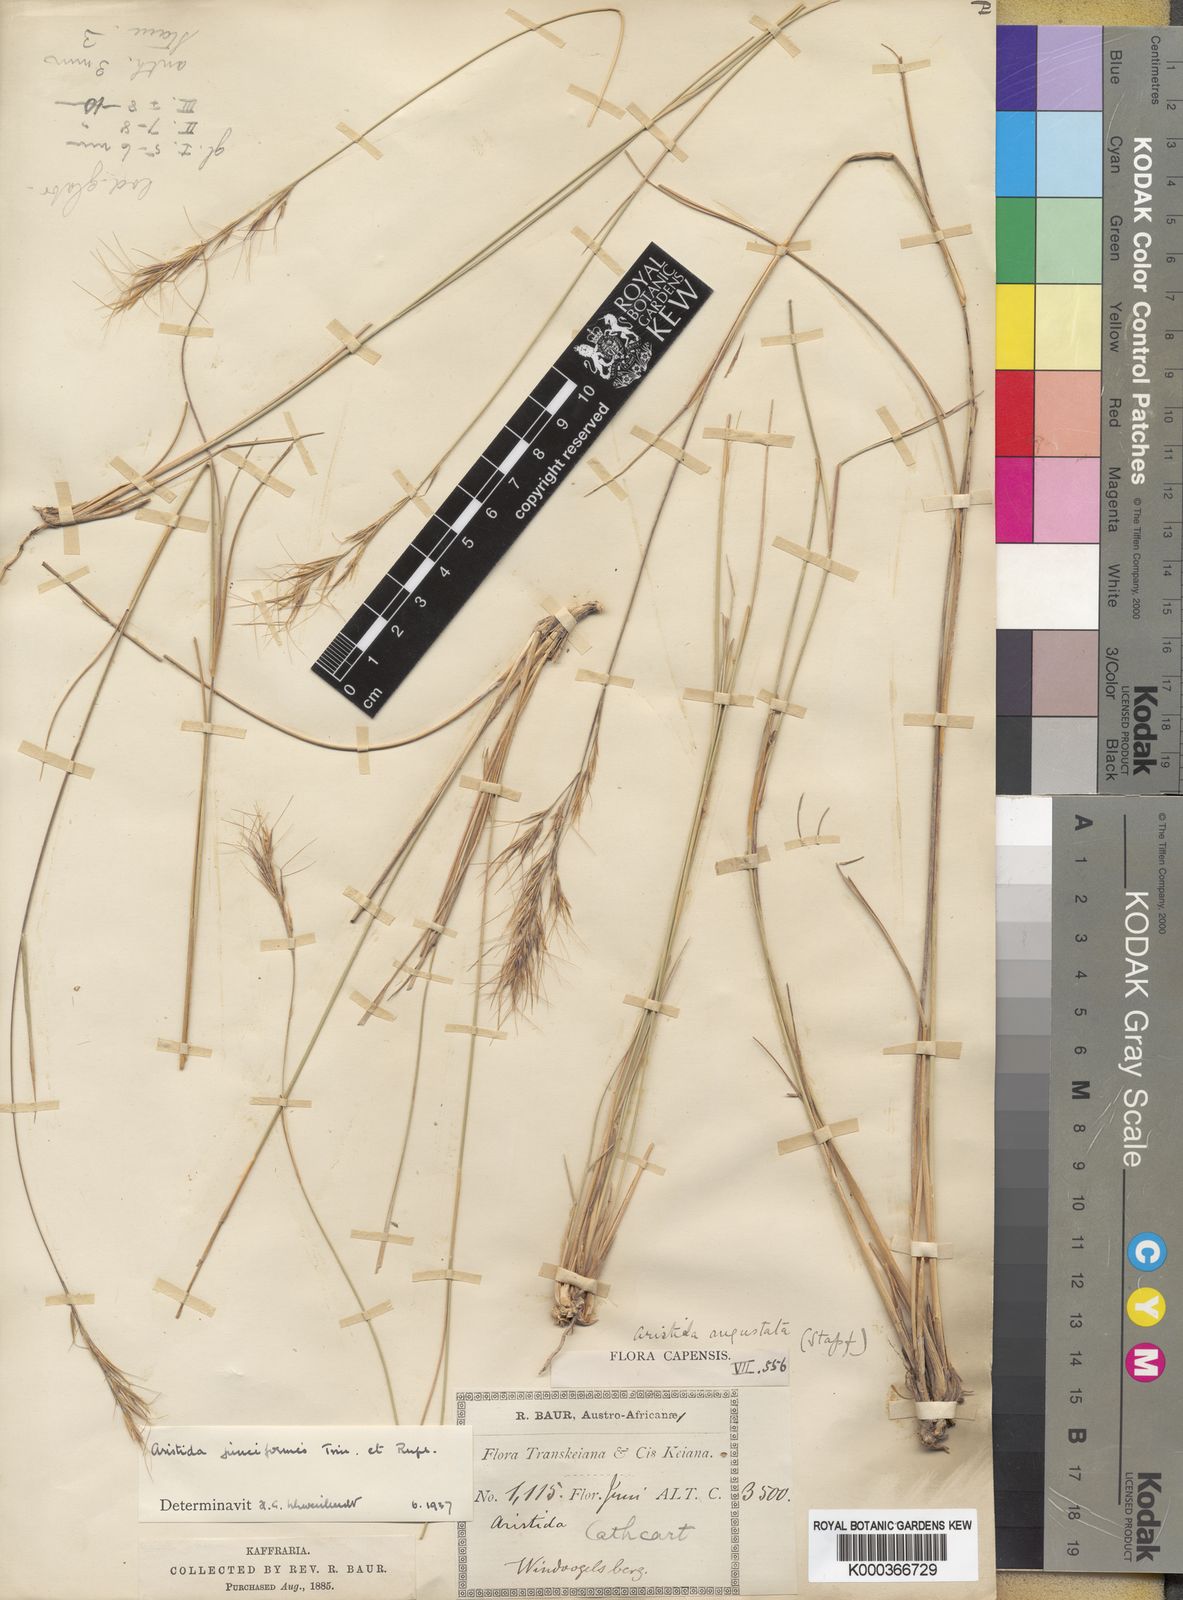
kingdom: Plantae
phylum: Tracheophyta
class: Liliopsida
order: Poales
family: Poaceae
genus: Aristida
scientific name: Aristida junciformis
